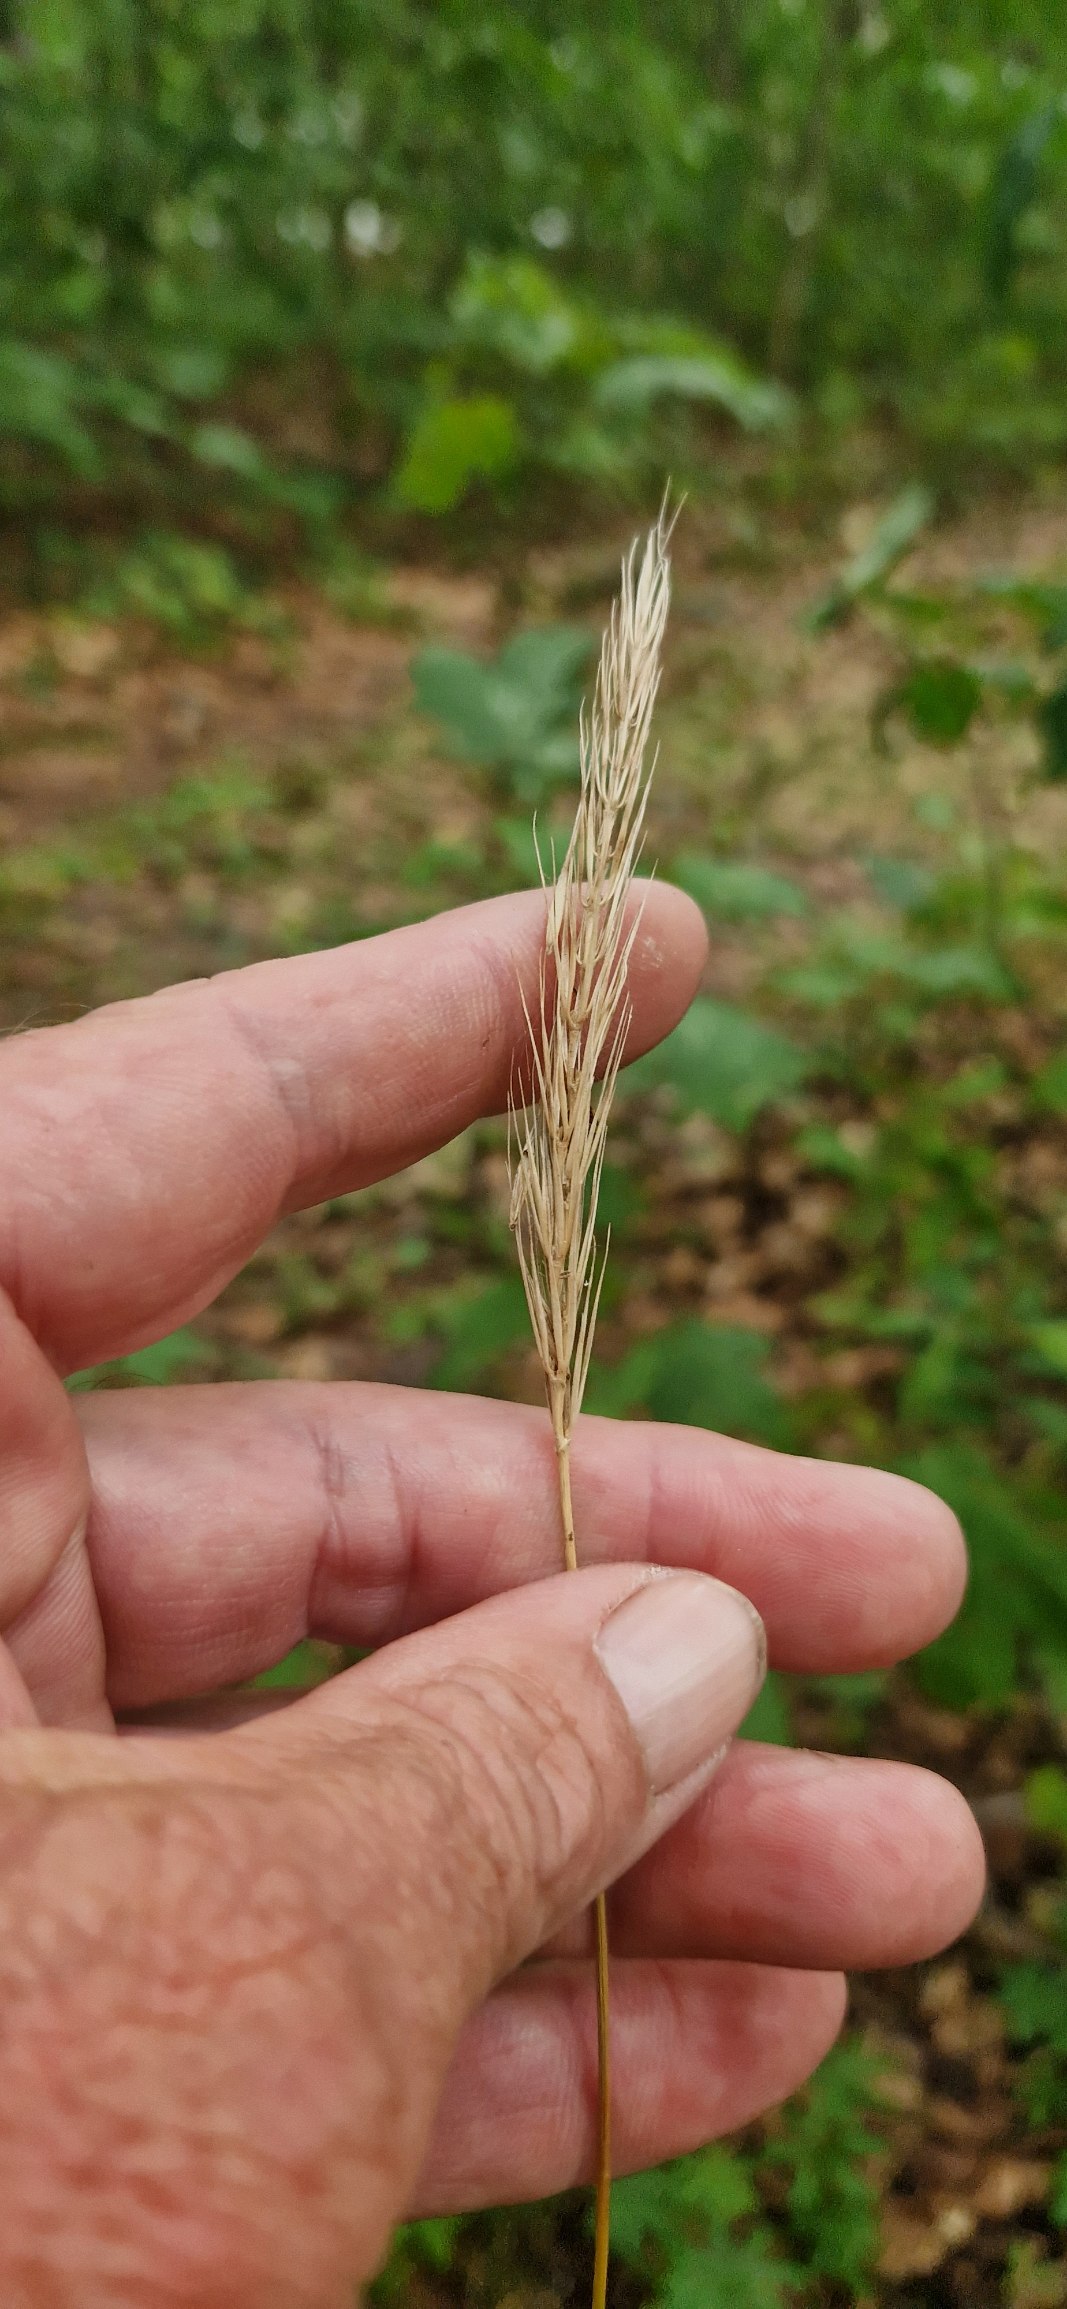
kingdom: Plantae
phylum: Tracheophyta
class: Liliopsida
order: Poales
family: Poaceae
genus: Hordelymus
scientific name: Hordelymus europaeus
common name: Skovbyg
